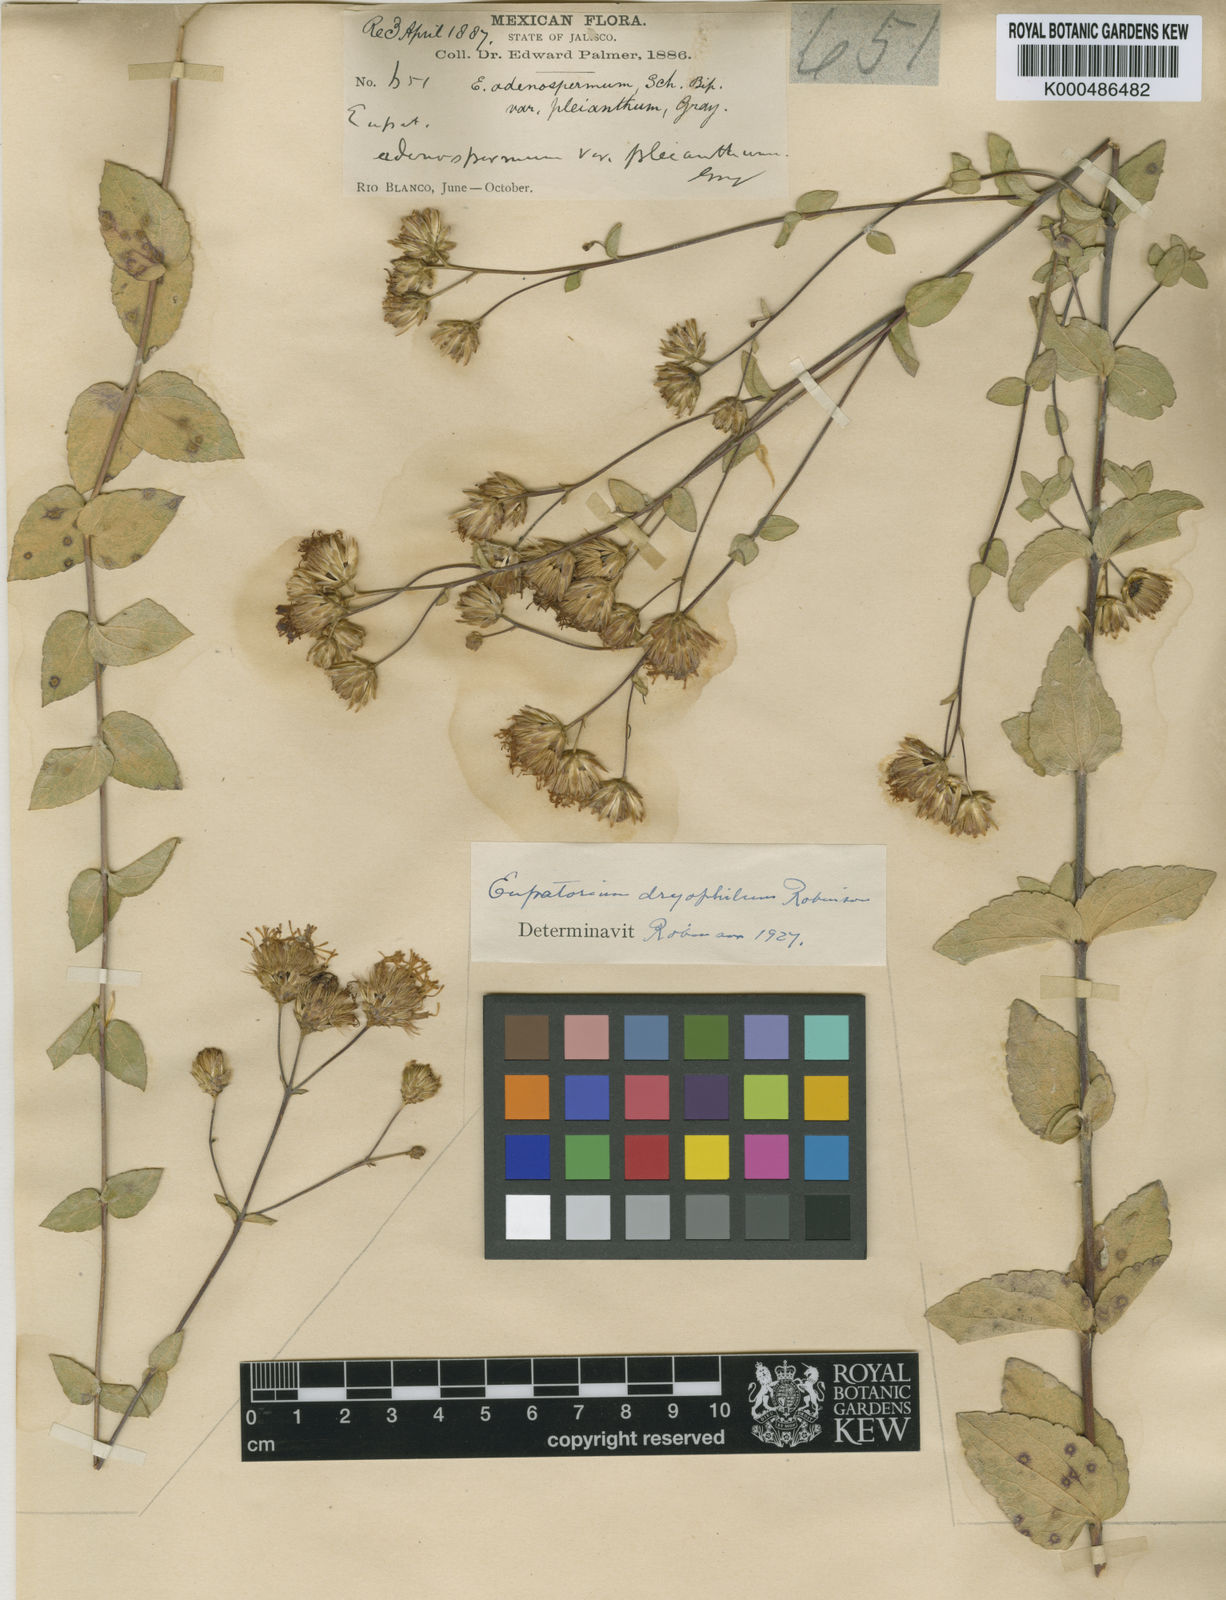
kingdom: Plantae
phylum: Tracheophyta
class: Magnoliopsida
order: Asterales
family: Asteraceae
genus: Steviopsis
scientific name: Steviopsis dryophila
